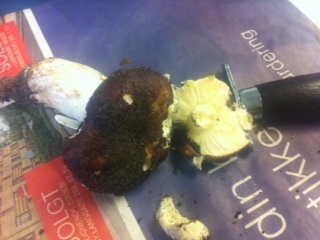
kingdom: Fungi
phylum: Basidiomycota
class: Agaricomycetes
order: Russulales
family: Russulaceae
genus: Russula
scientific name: Russula atropurpurea
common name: purpurbroget skørhat
